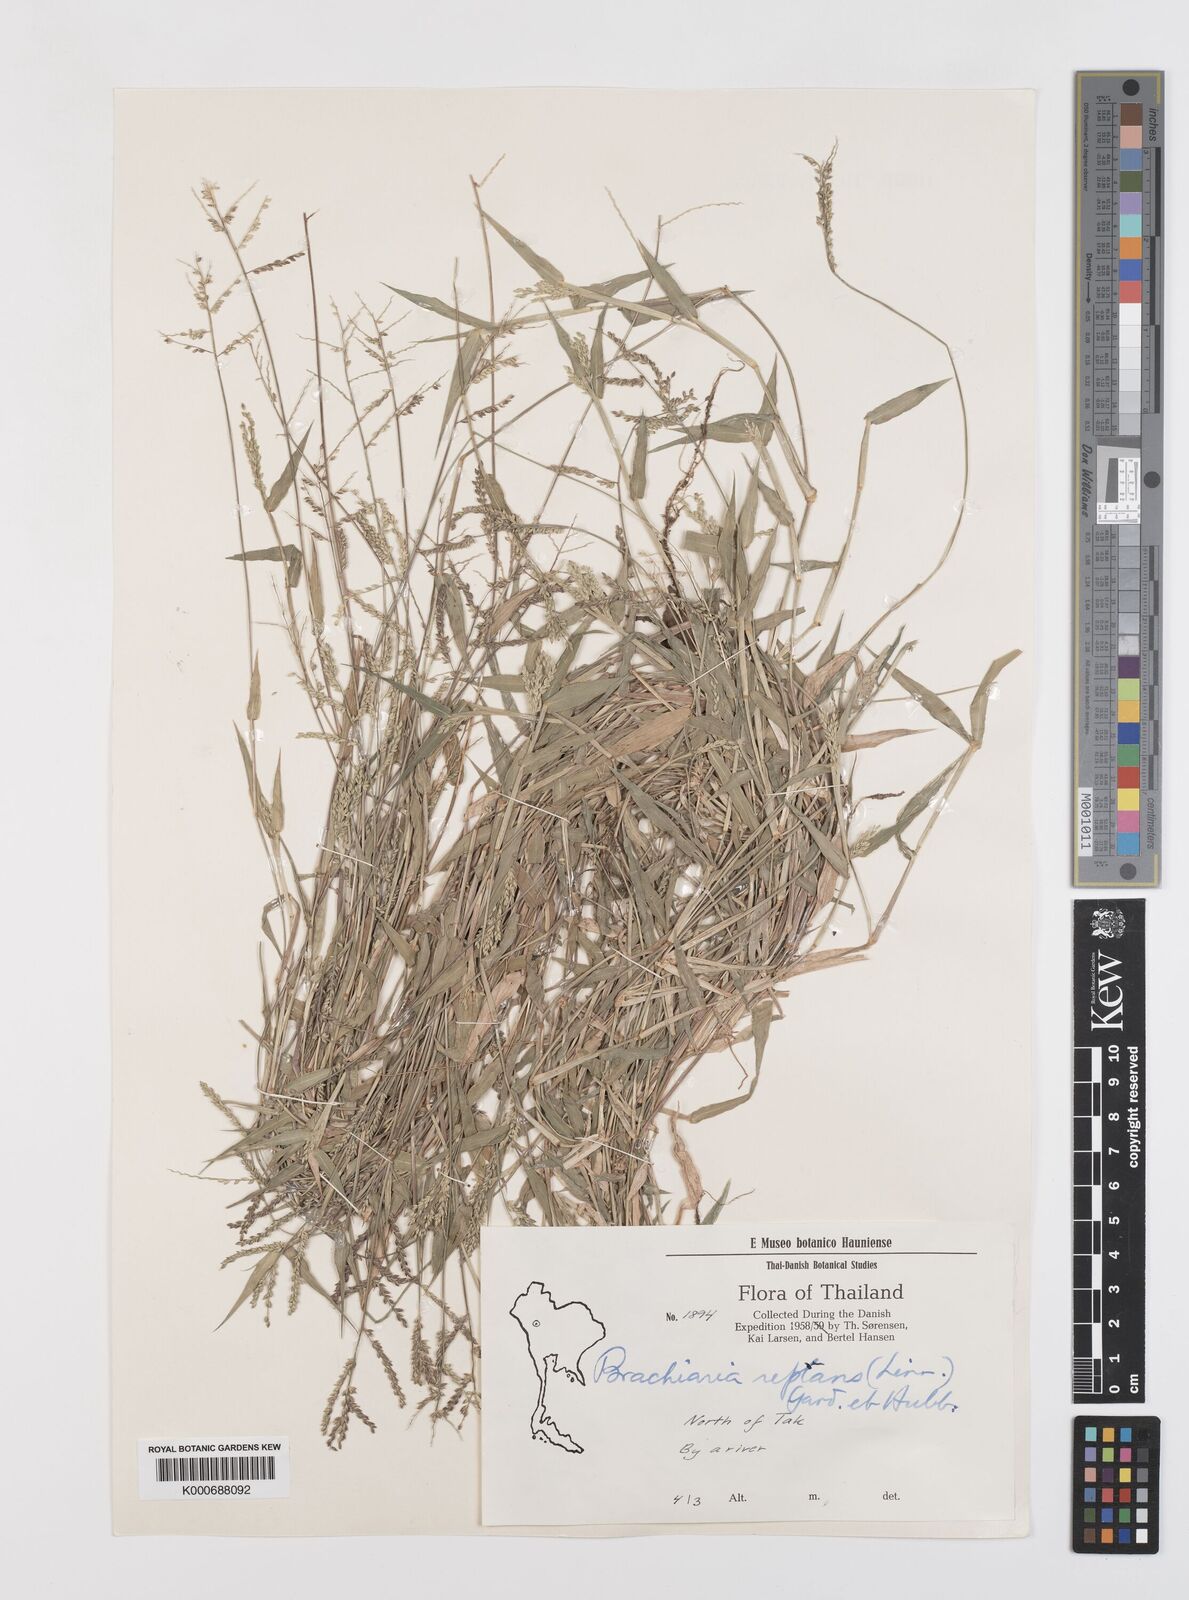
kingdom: Plantae
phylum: Tracheophyta
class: Liliopsida
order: Poales
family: Poaceae
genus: Urochloa
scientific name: Urochloa reptans
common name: Sprawling signalgrass
